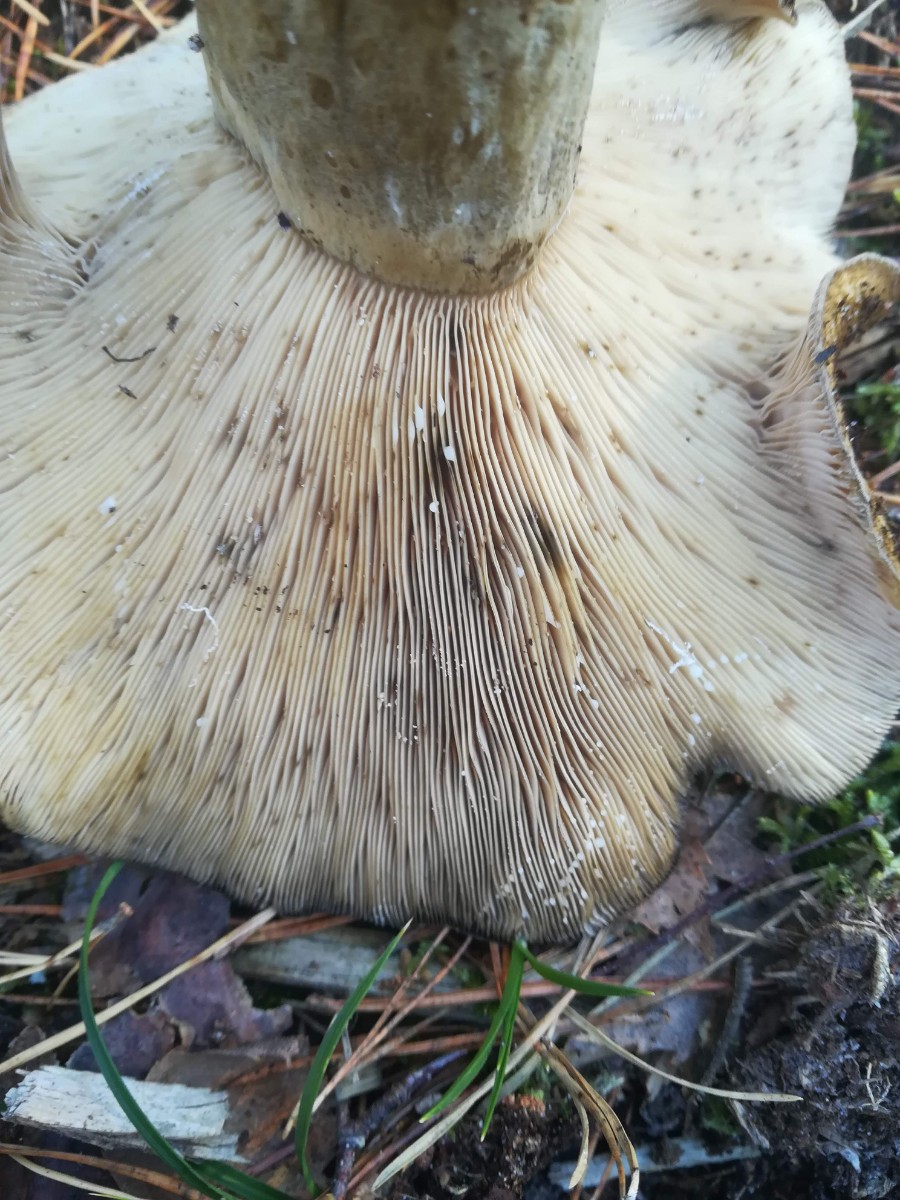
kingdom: Fungi
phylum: Basidiomycota
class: Agaricomycetes
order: Russulales
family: Russulaceae
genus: Lactarius
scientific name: Lactarius necator
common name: manddraber-mælkehat
